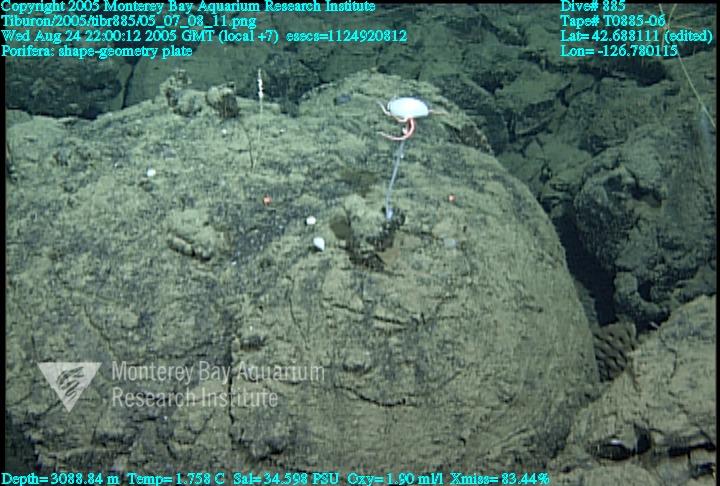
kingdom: Animalia
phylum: Porifera
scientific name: Porifera
